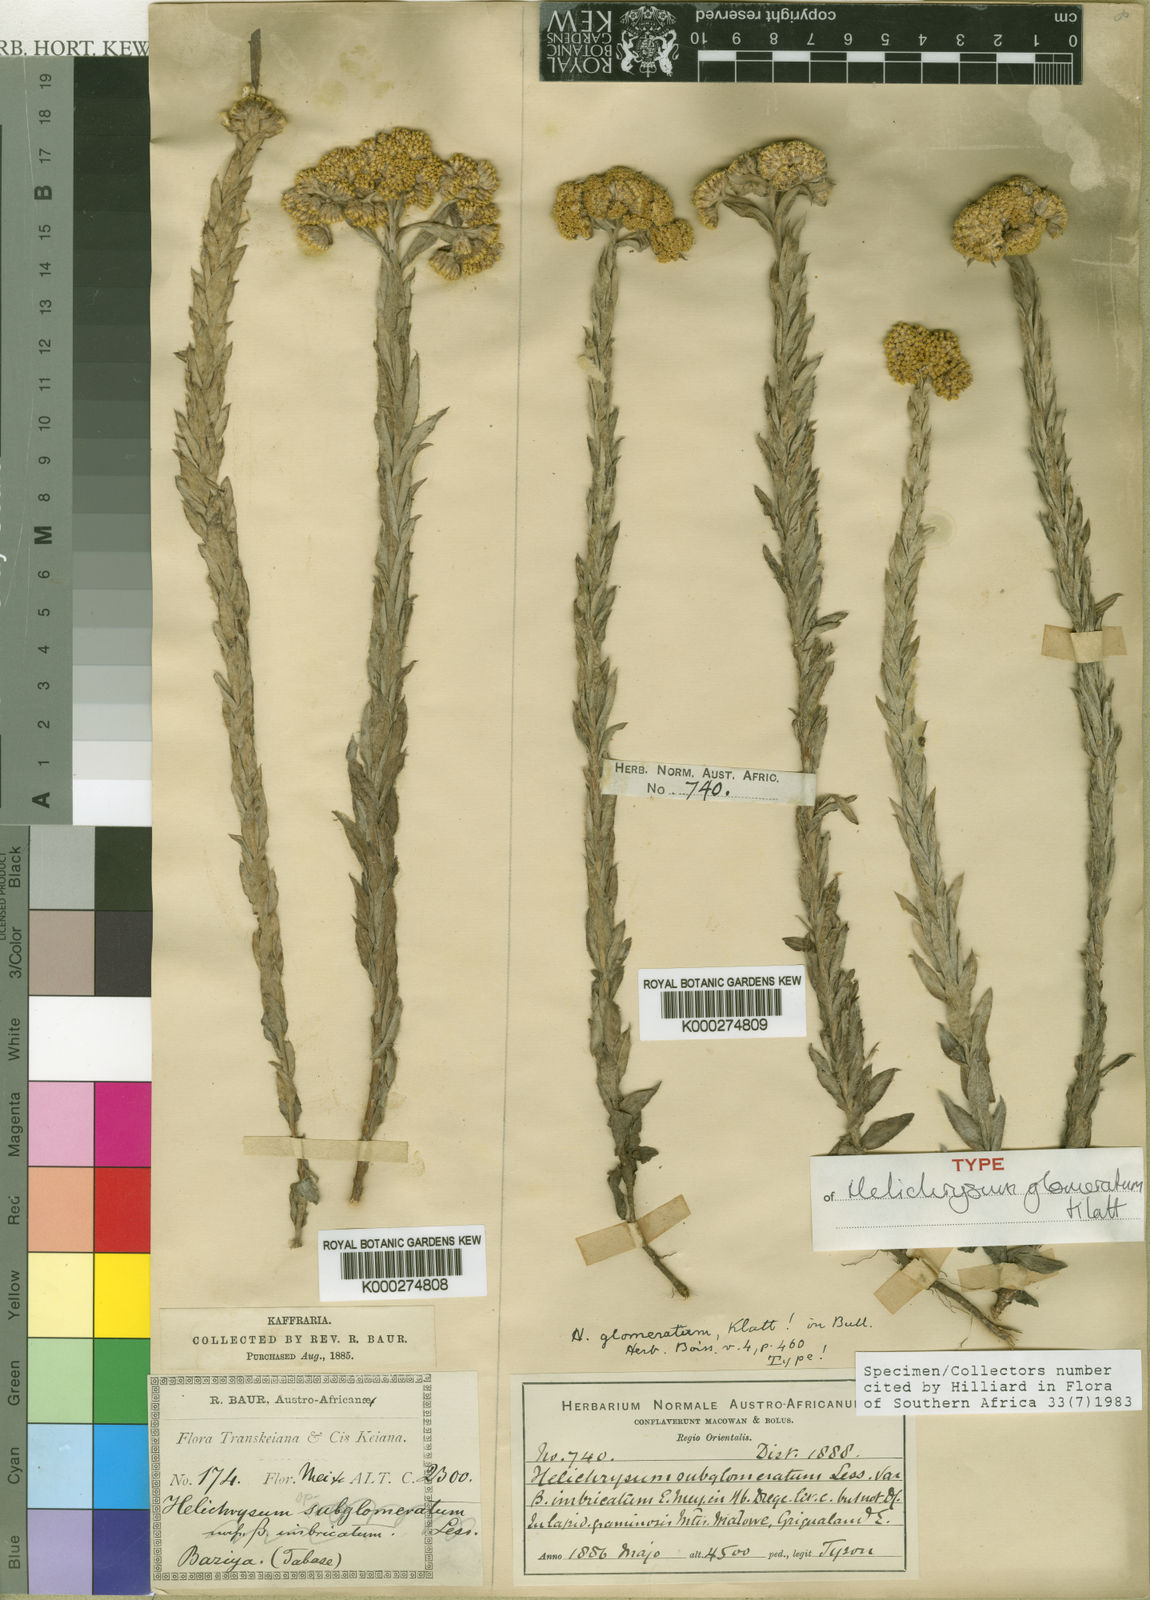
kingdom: Plantae
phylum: Tracheophyta
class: Magnoliopsida
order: Asterales
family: Asteraceae
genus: Helichrysum
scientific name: Helichrysum glomeratum
